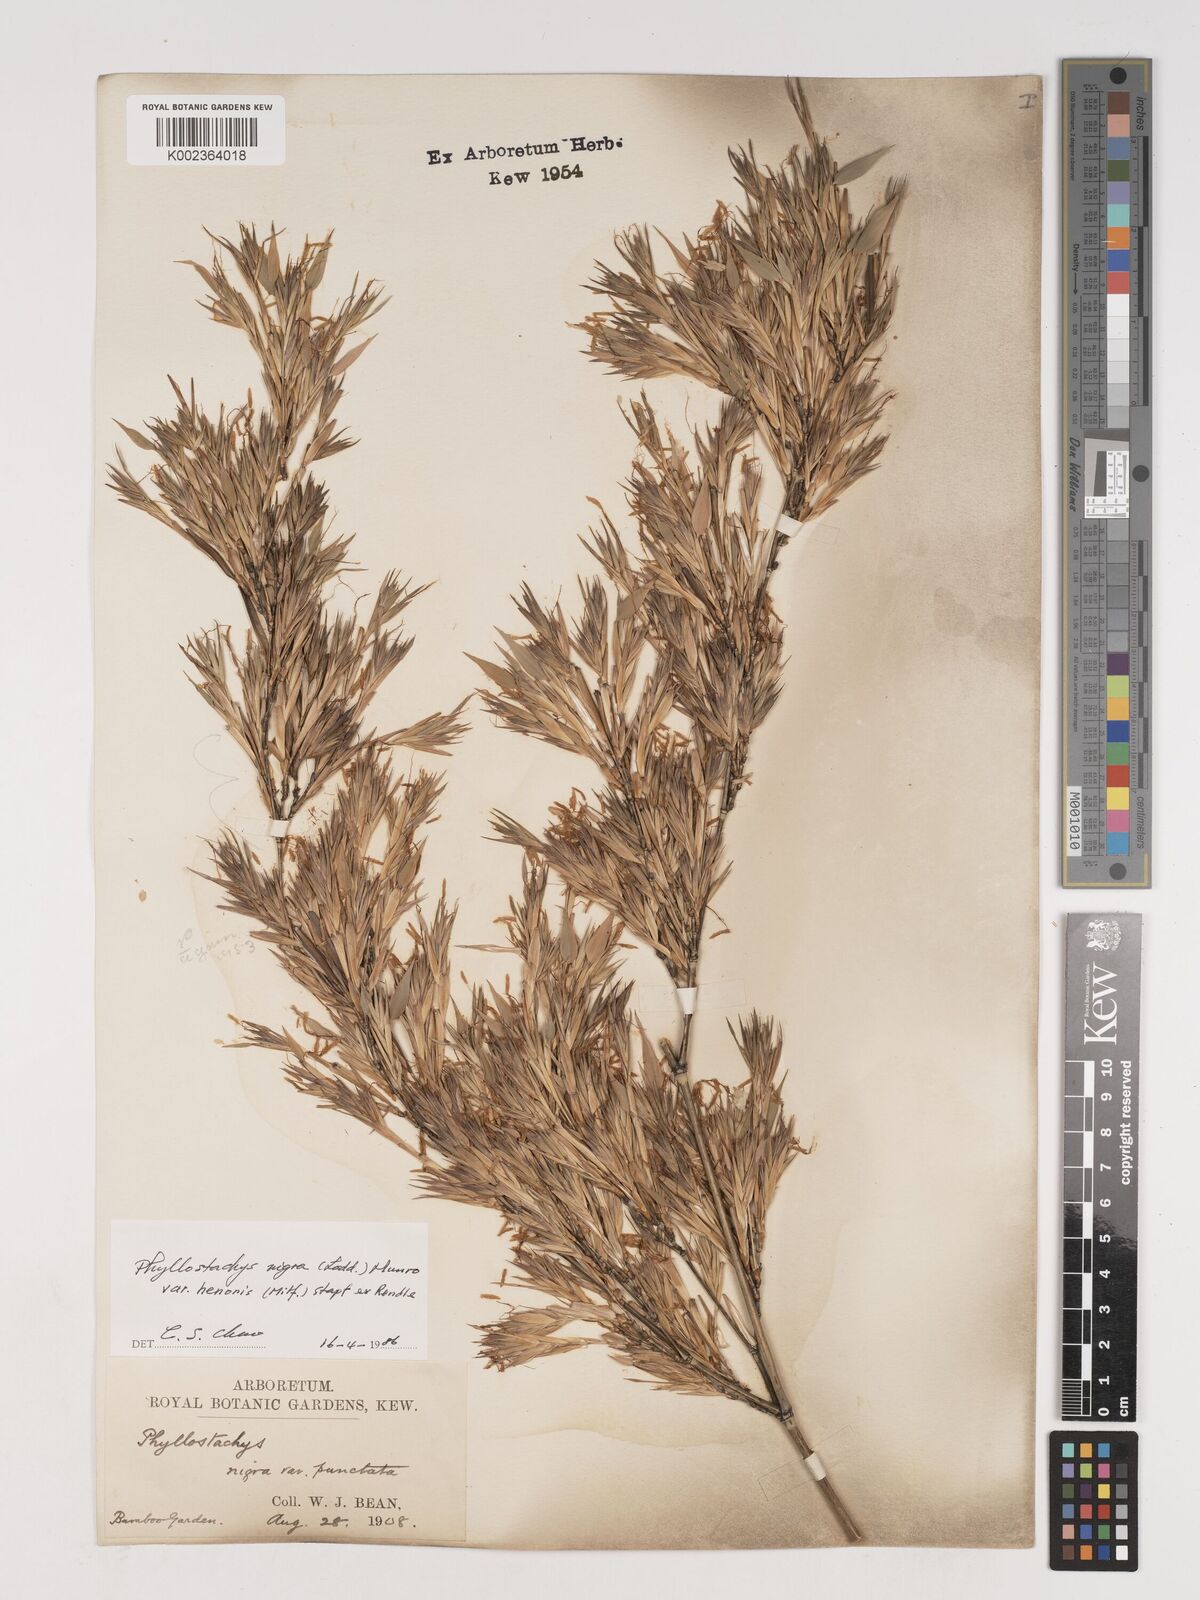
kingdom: Plantae
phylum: Tracheophyta
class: Liliopsida
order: Poales
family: Poaceae
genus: Phyllostachys
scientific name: Phyllostachys nigra
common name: Black bamboo
